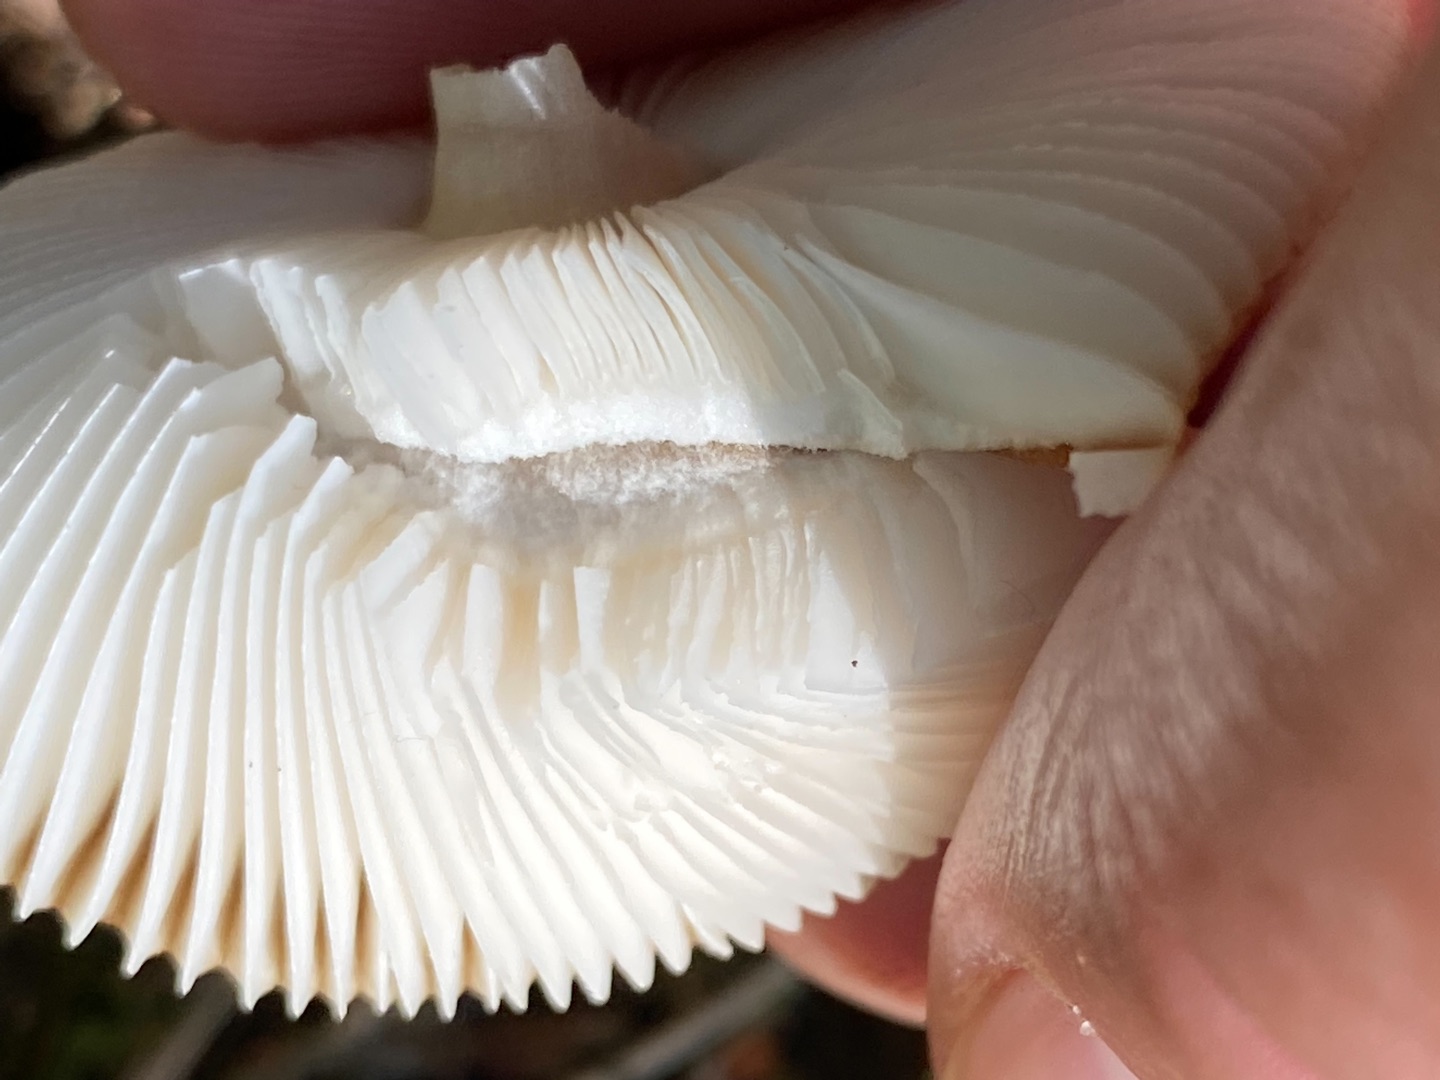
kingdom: Fungi
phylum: Basidiomycota
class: Agaricomycetes
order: Agaricales
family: Amanitaceae
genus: Amanita
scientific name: Amanita fulva
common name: Brun kam-fluesvamp
